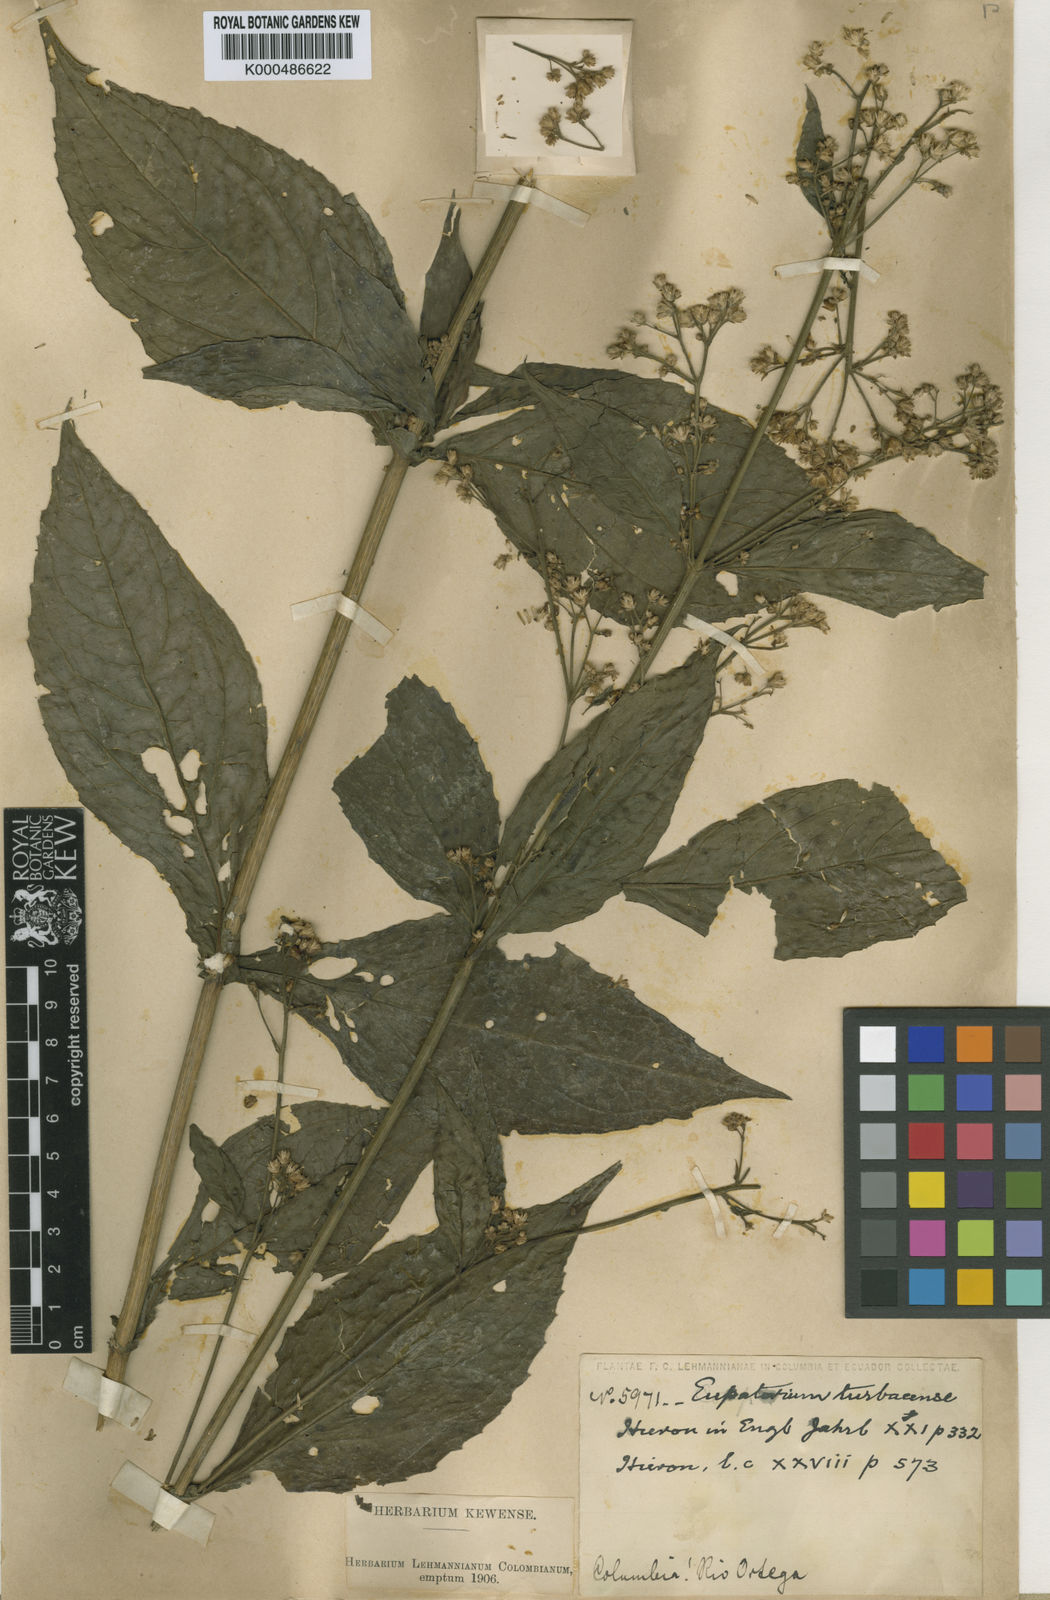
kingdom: Plantae
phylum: Tracheophyta
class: Magnoliopsida
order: Asterales
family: Asteraceae
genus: Ayapana
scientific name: Ayapana turbacensis
